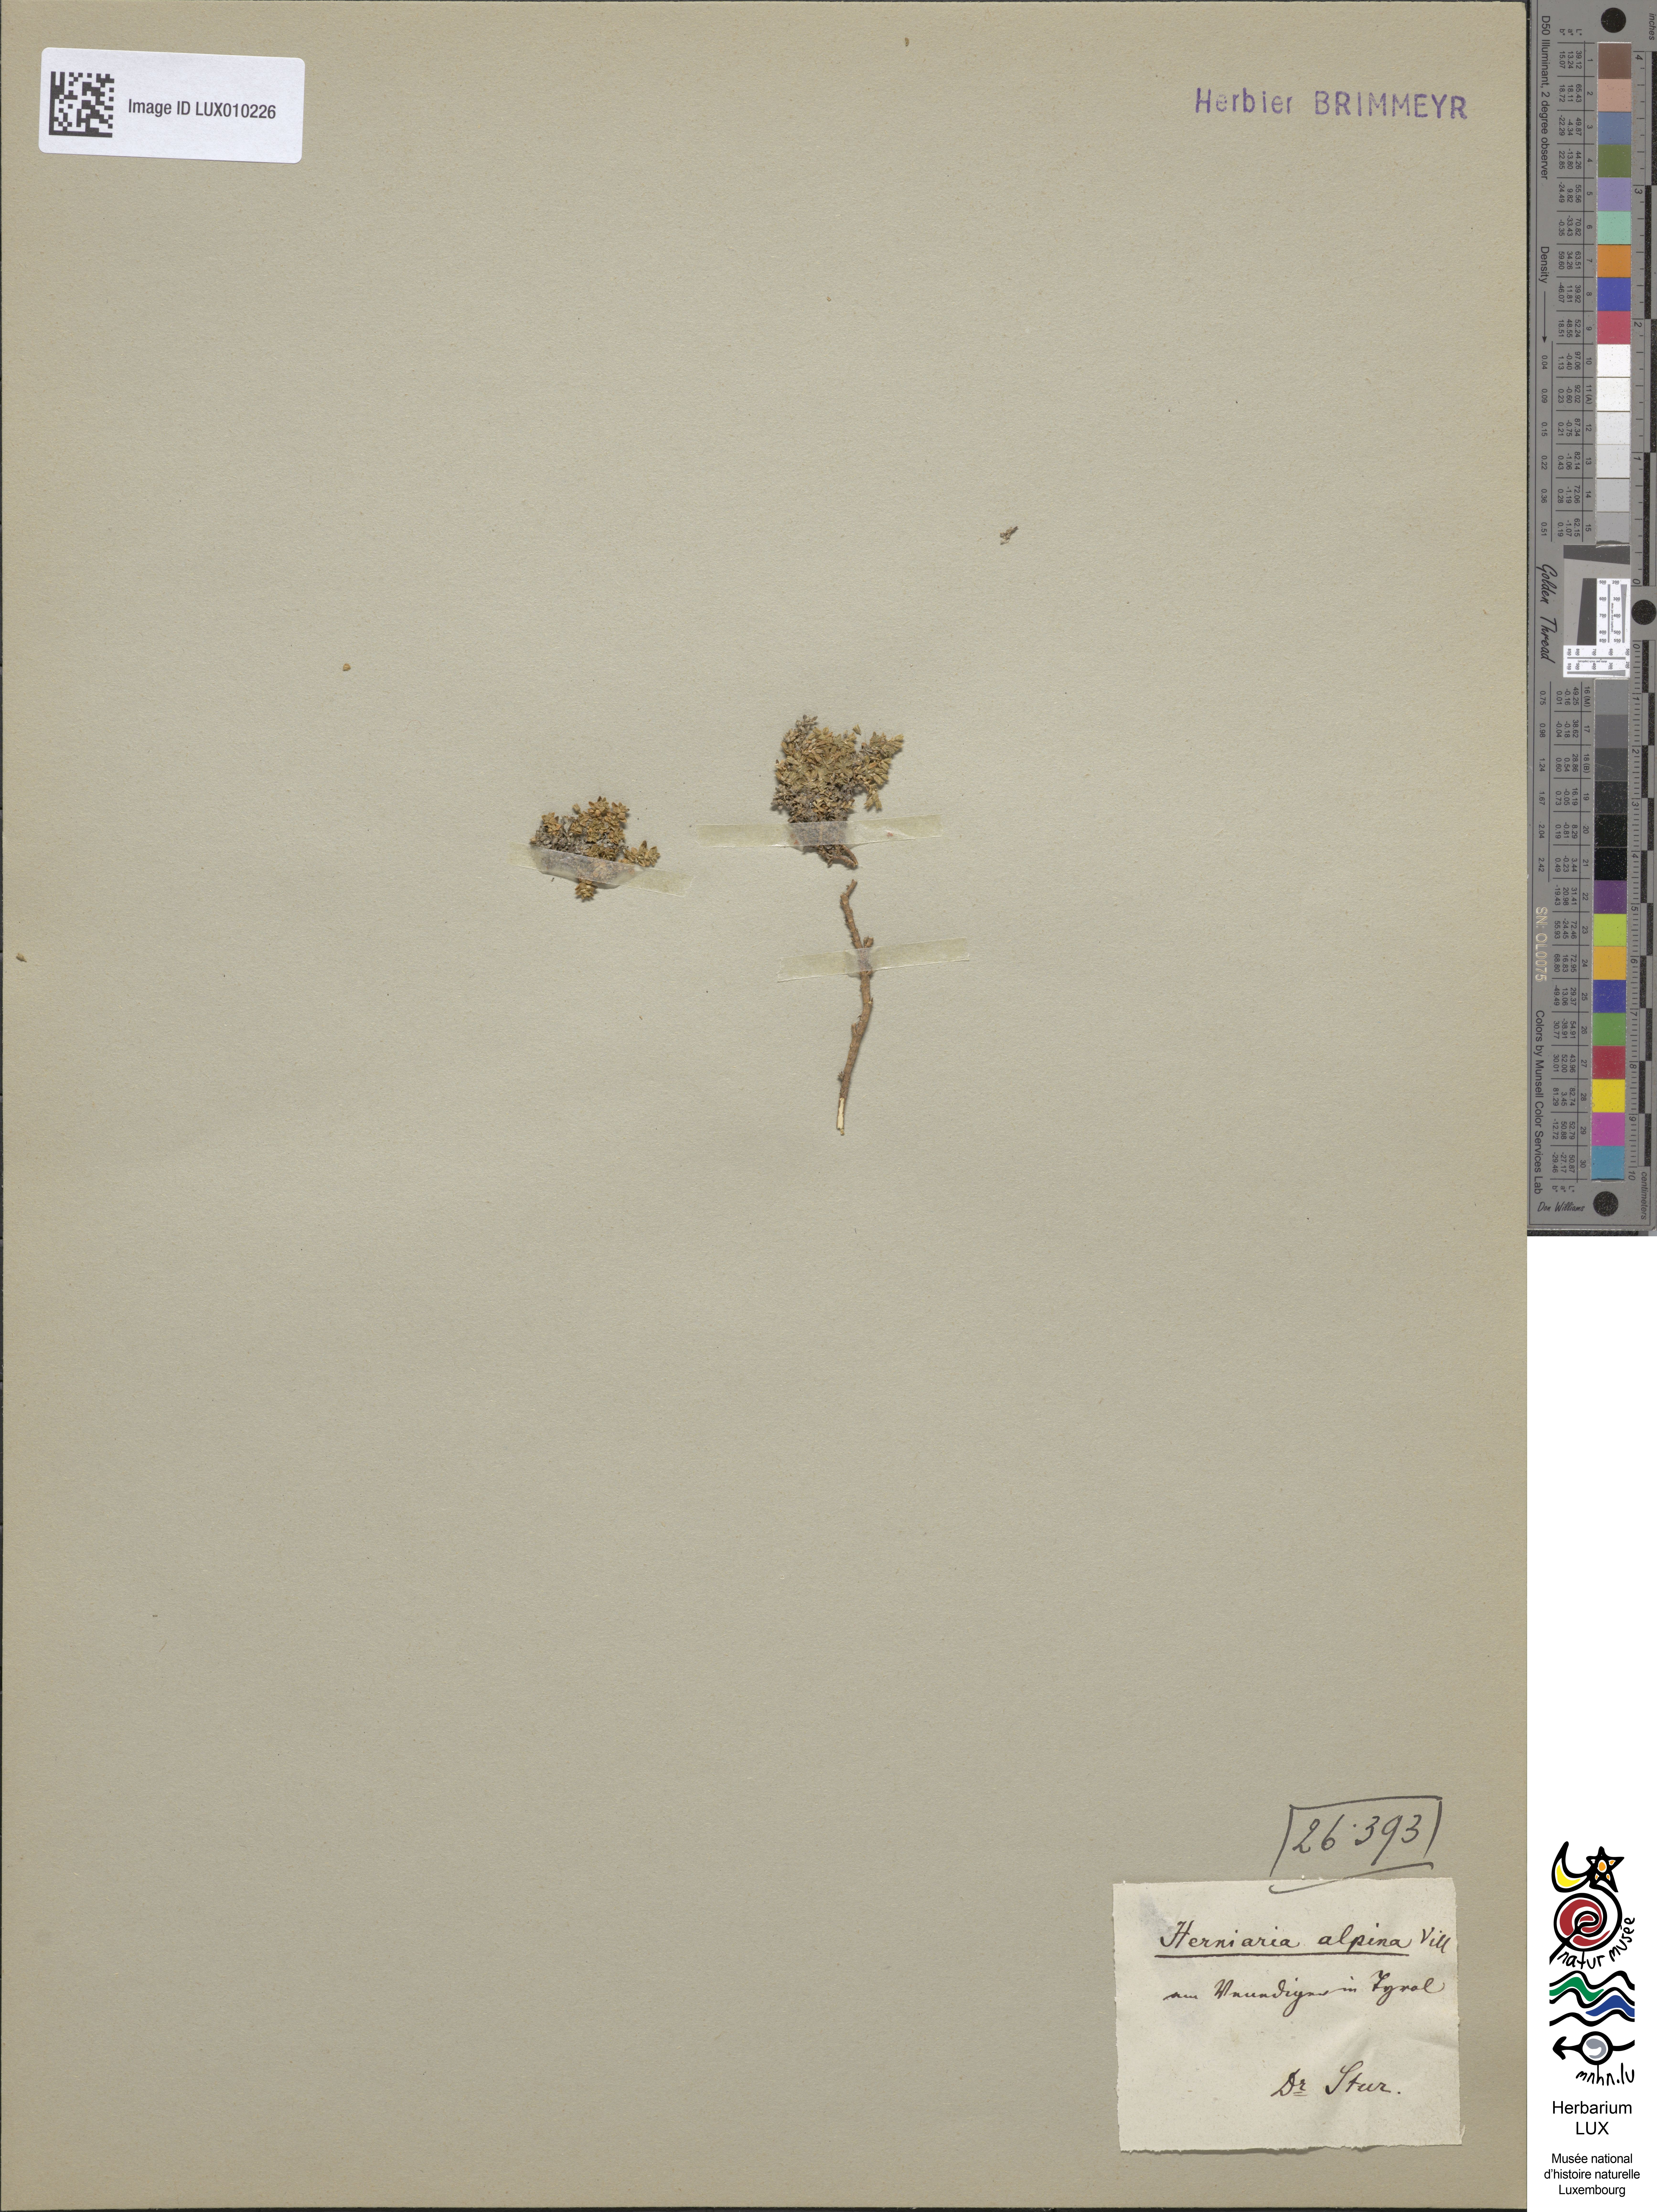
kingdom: Plantae
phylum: Tracheophyta
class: Magnoliopsida
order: Caryophyllales
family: Caryophyllaceae
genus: Herniaria
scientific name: Herniaria alpina
